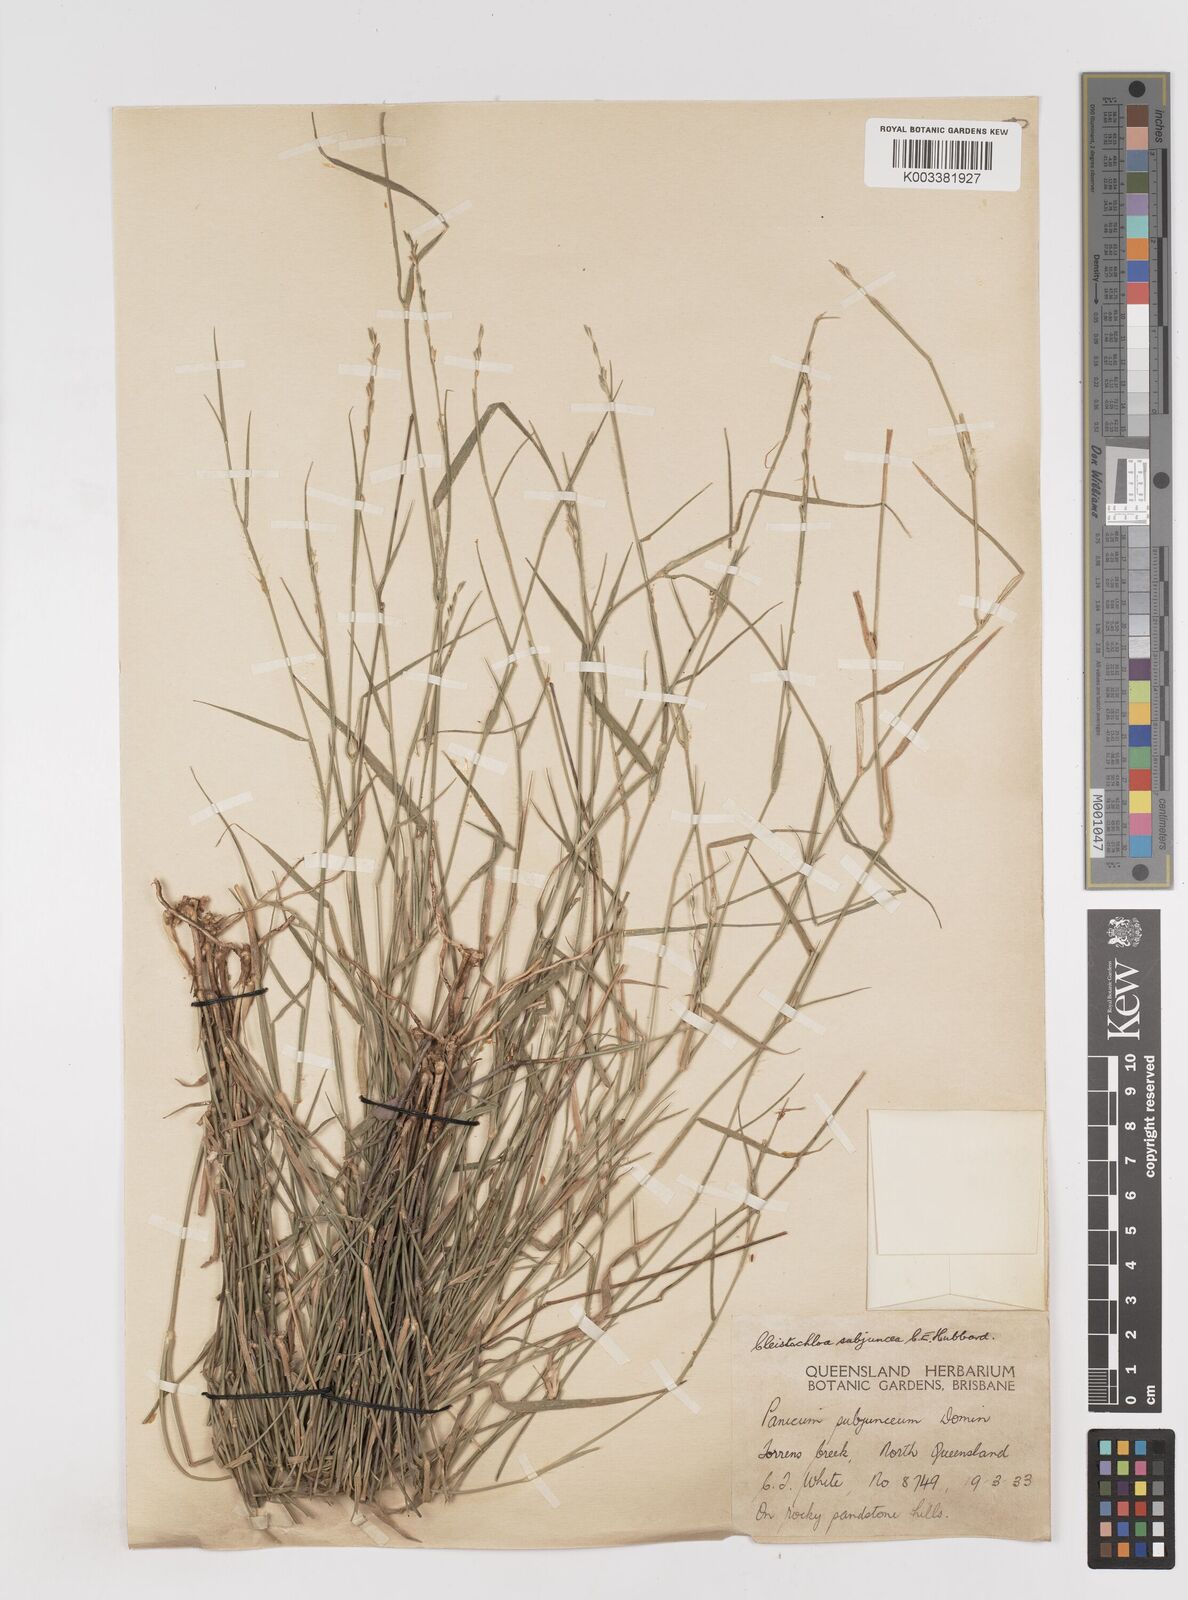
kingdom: Plantae
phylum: Tracheophyta
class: Liliopsida
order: Poales
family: Poaceae
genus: Cleistochloa
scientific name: Cleistochloa subjuncea
